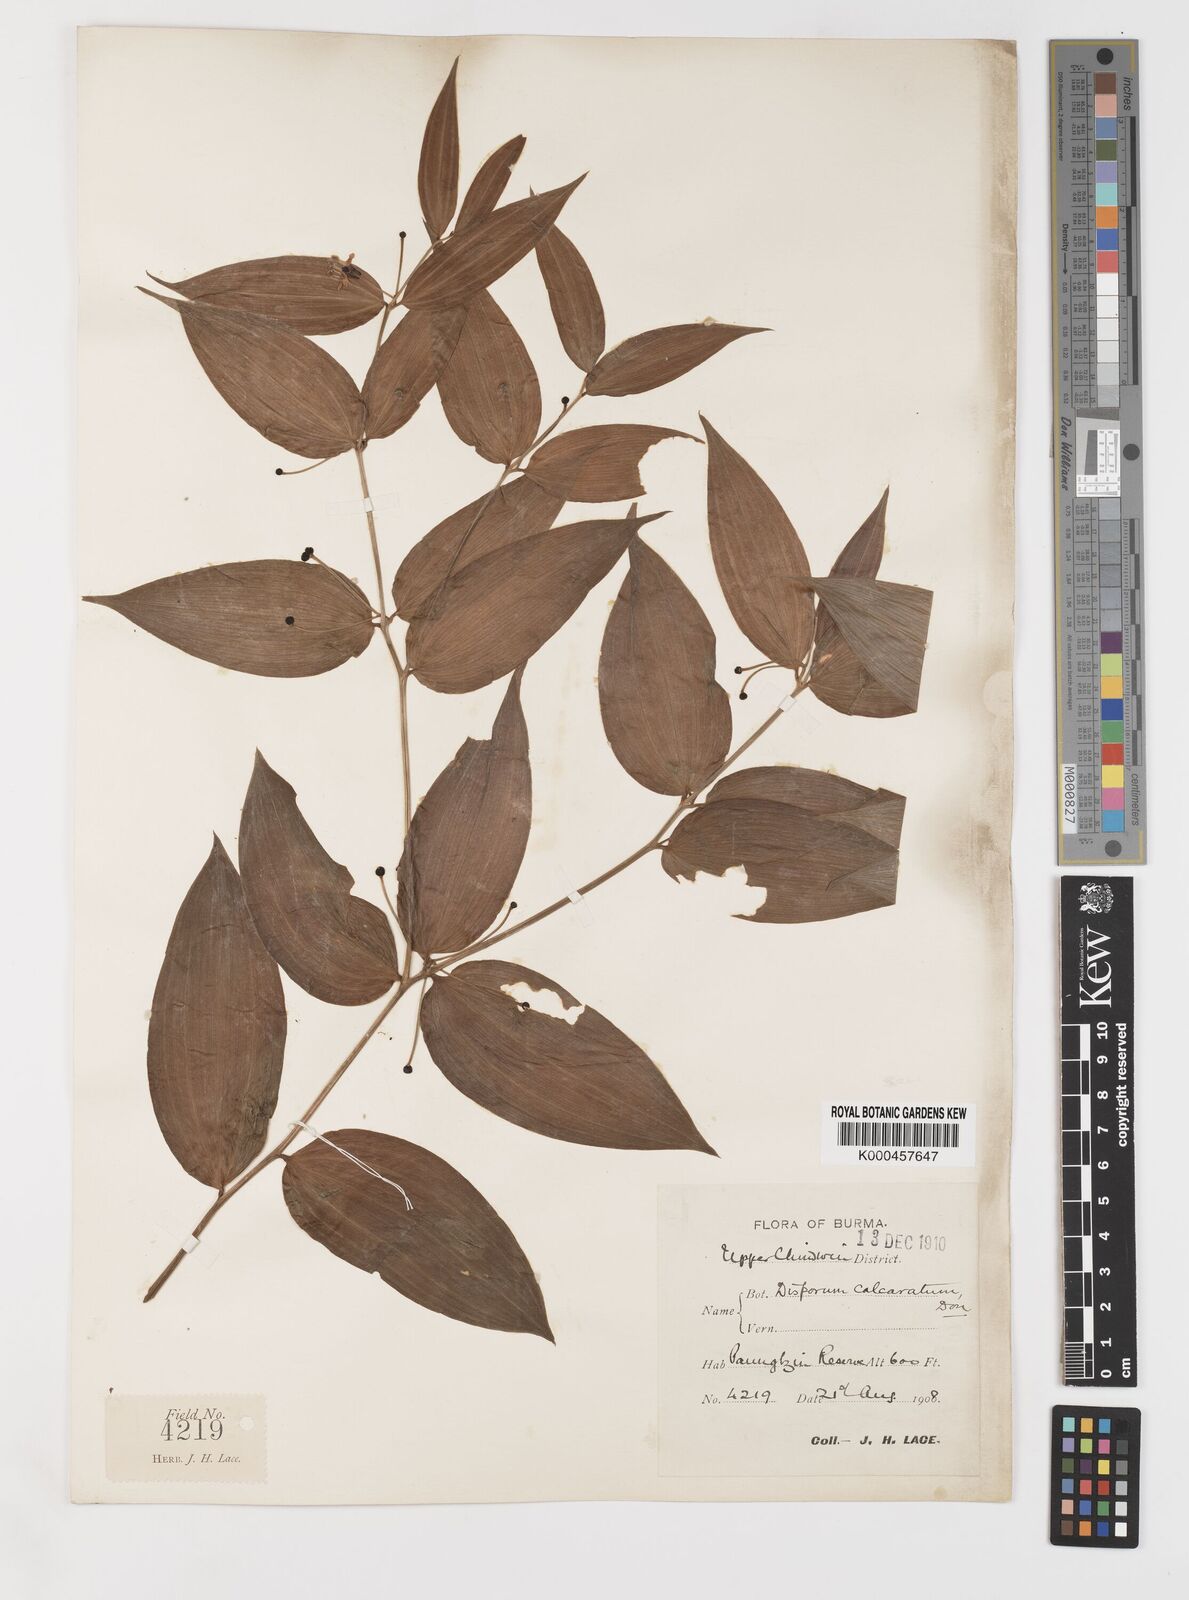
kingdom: Plantae
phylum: Tracheophyta
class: Liliopsida
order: Liliales
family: Colchicaceae
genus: Disporum
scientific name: Disporum calcaratum
